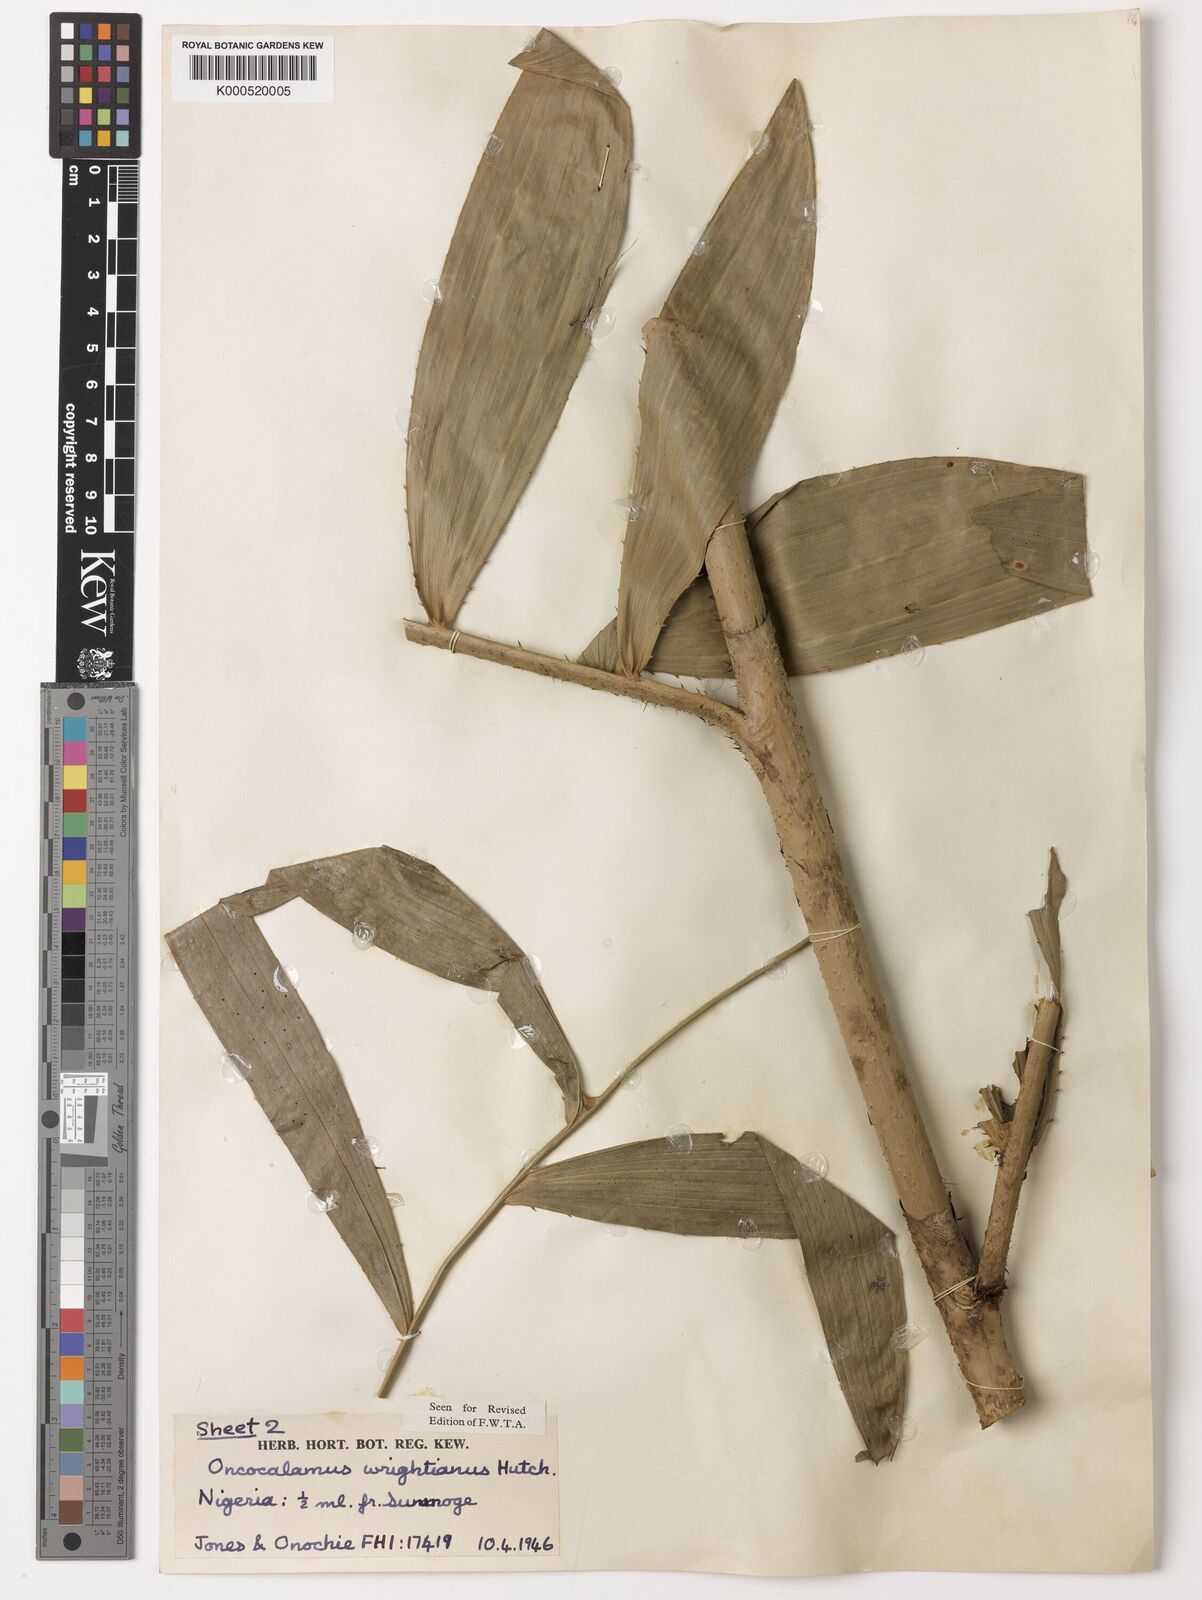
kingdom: Plantae
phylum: Tracheophyta
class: Liliopsida
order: Arecales
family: Arecaceae
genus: Oncocalamus
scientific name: Oncocalamus wrightianus
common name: Rattan
